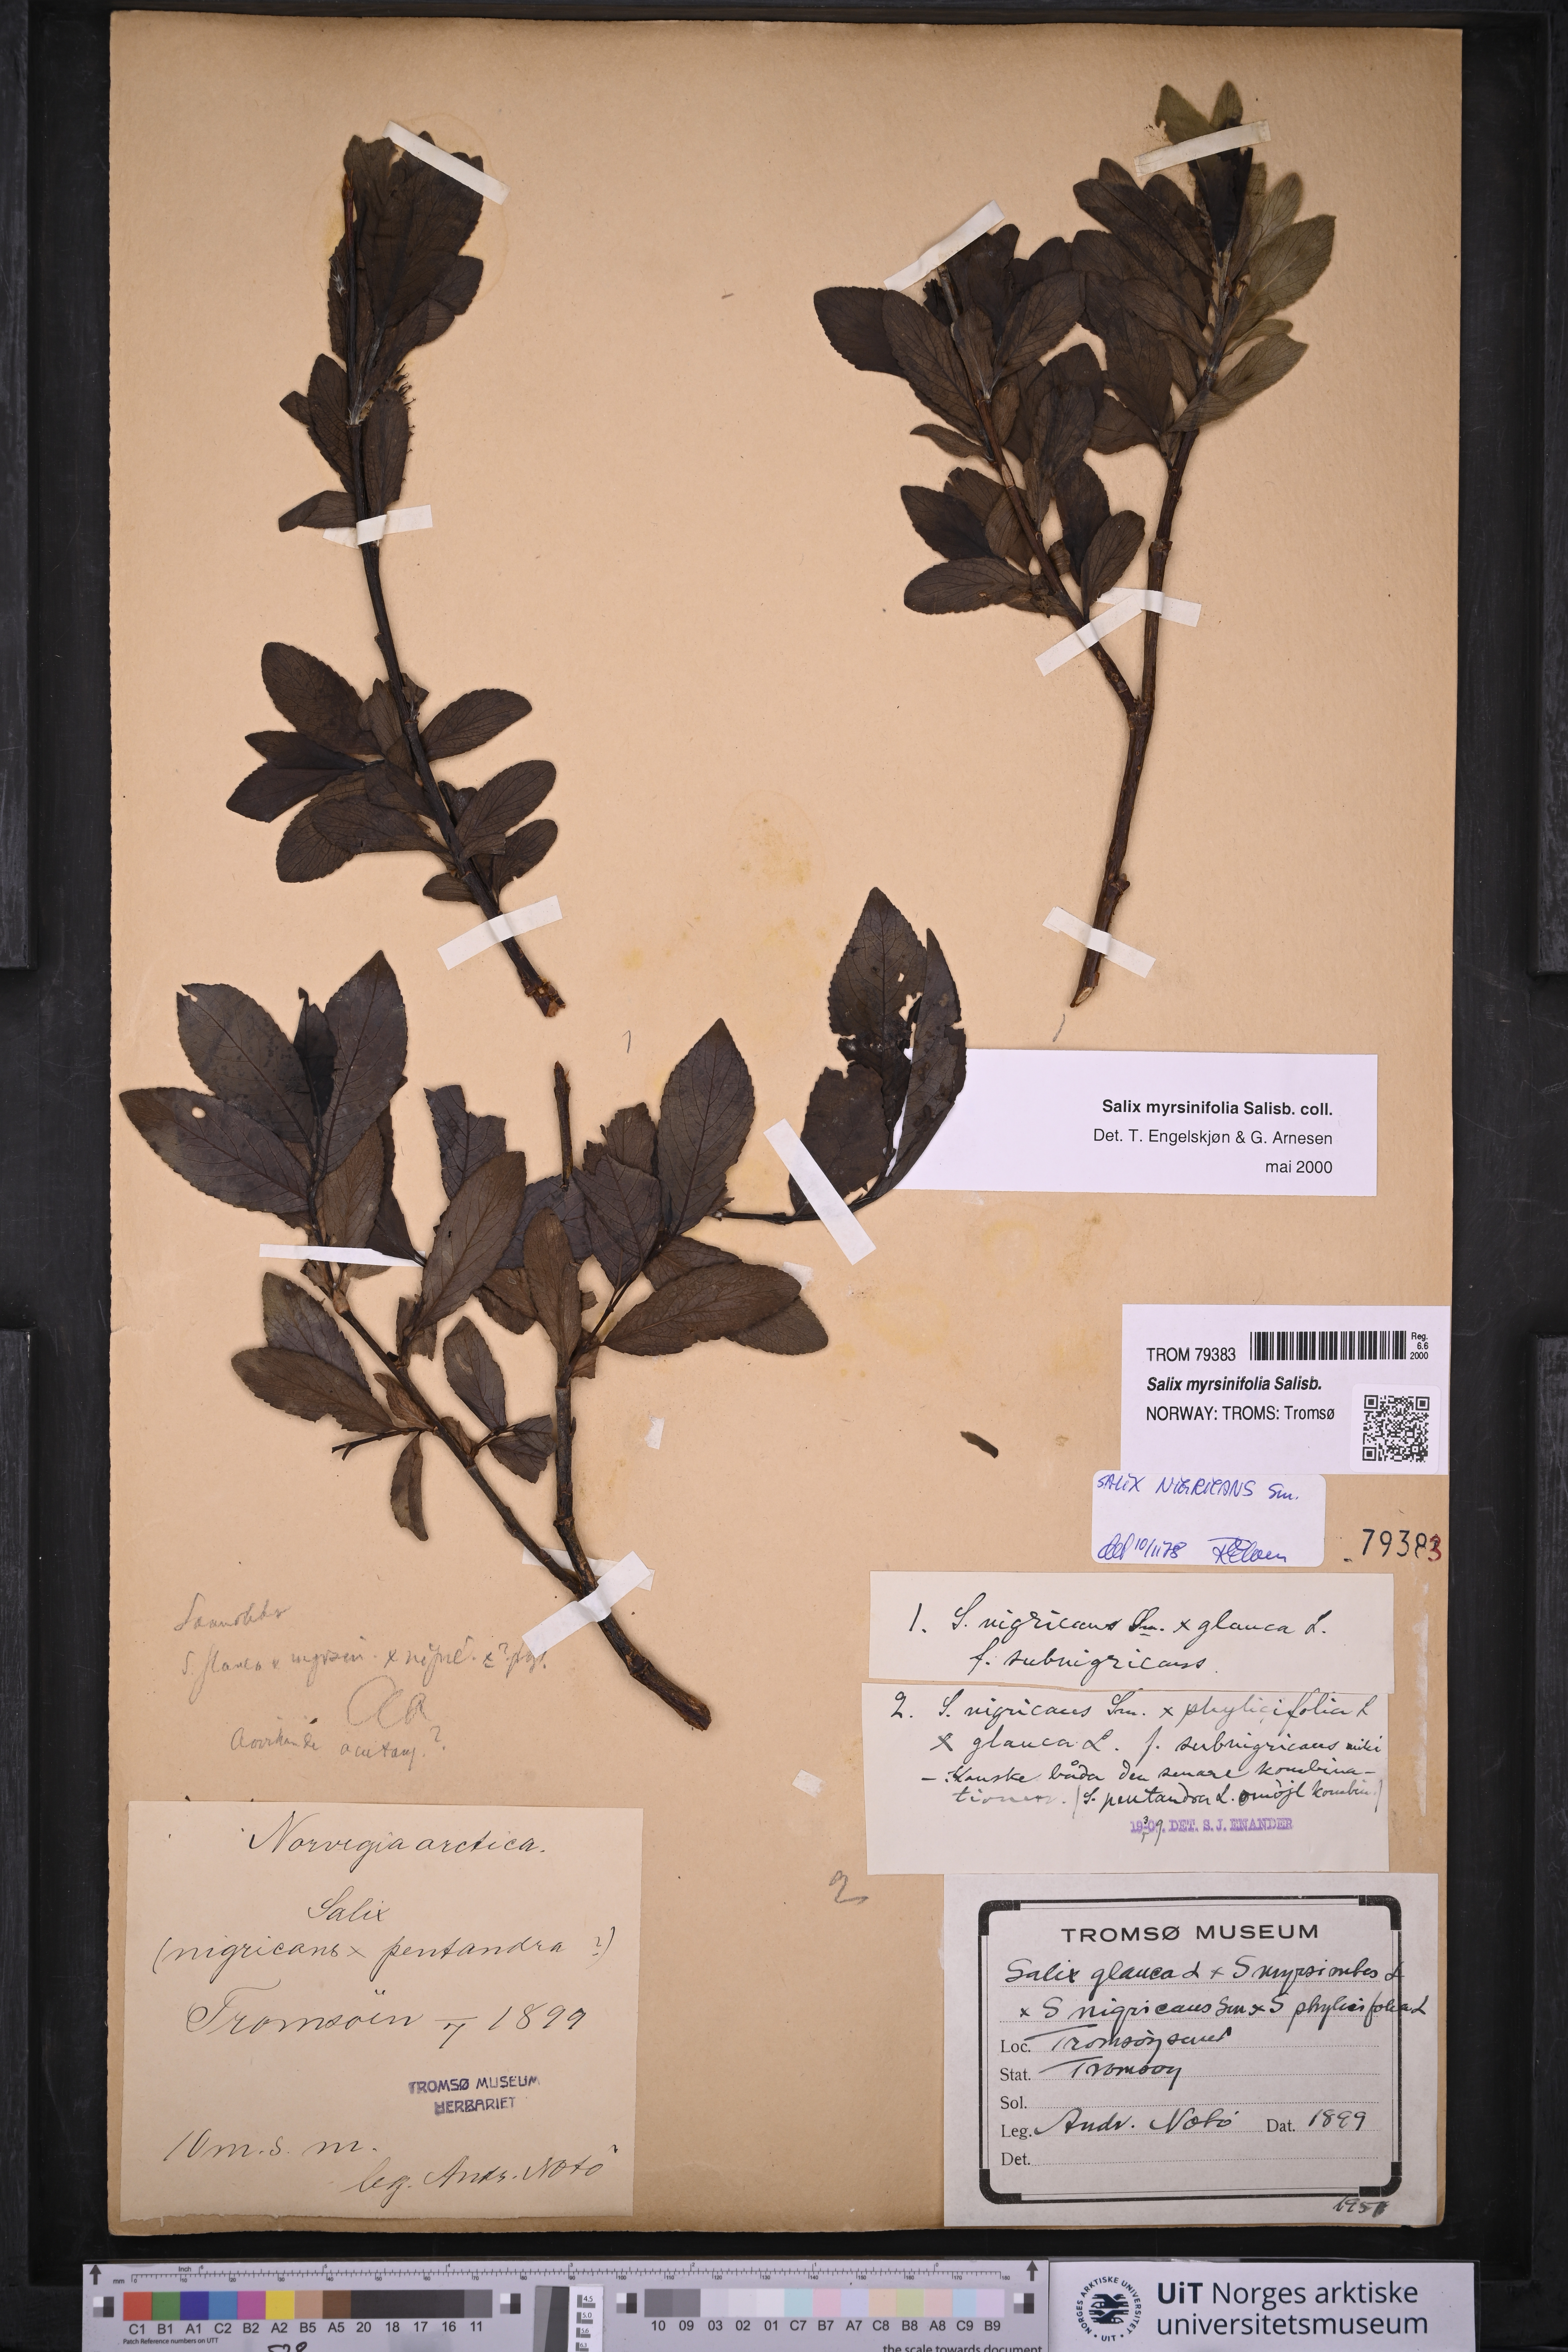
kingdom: Plantae
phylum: Tracheophyta
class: Magnoliopsida
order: Malpighiales
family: Salicaceae
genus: Salix
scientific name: Salix myrsinifolia
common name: Dark-leaved willow
